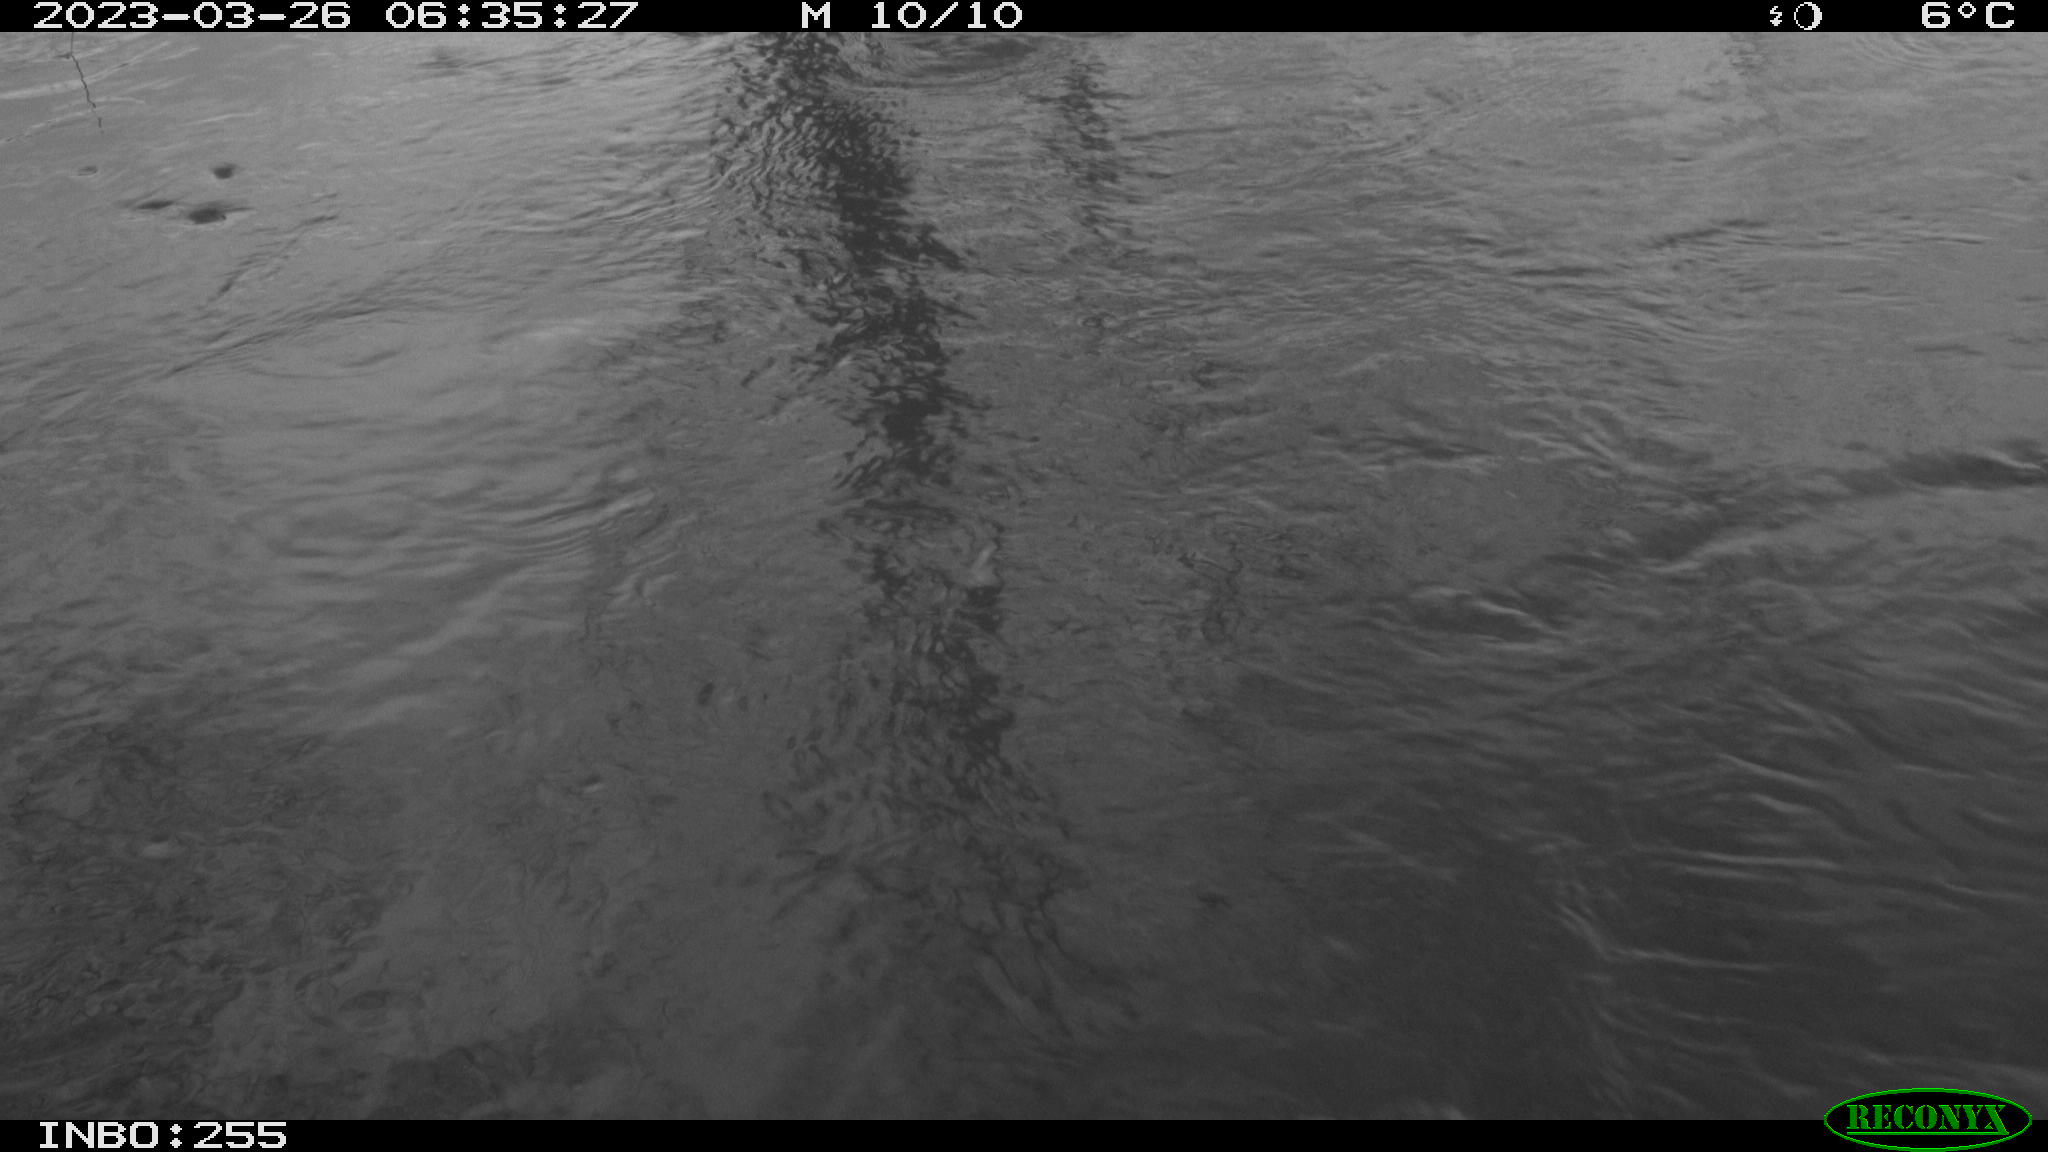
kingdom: Animalia
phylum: Chordata
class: Aves
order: Gruiformes
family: Rallidae
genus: Gallinula
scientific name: Gallinula chloropus
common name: Common moorhen
